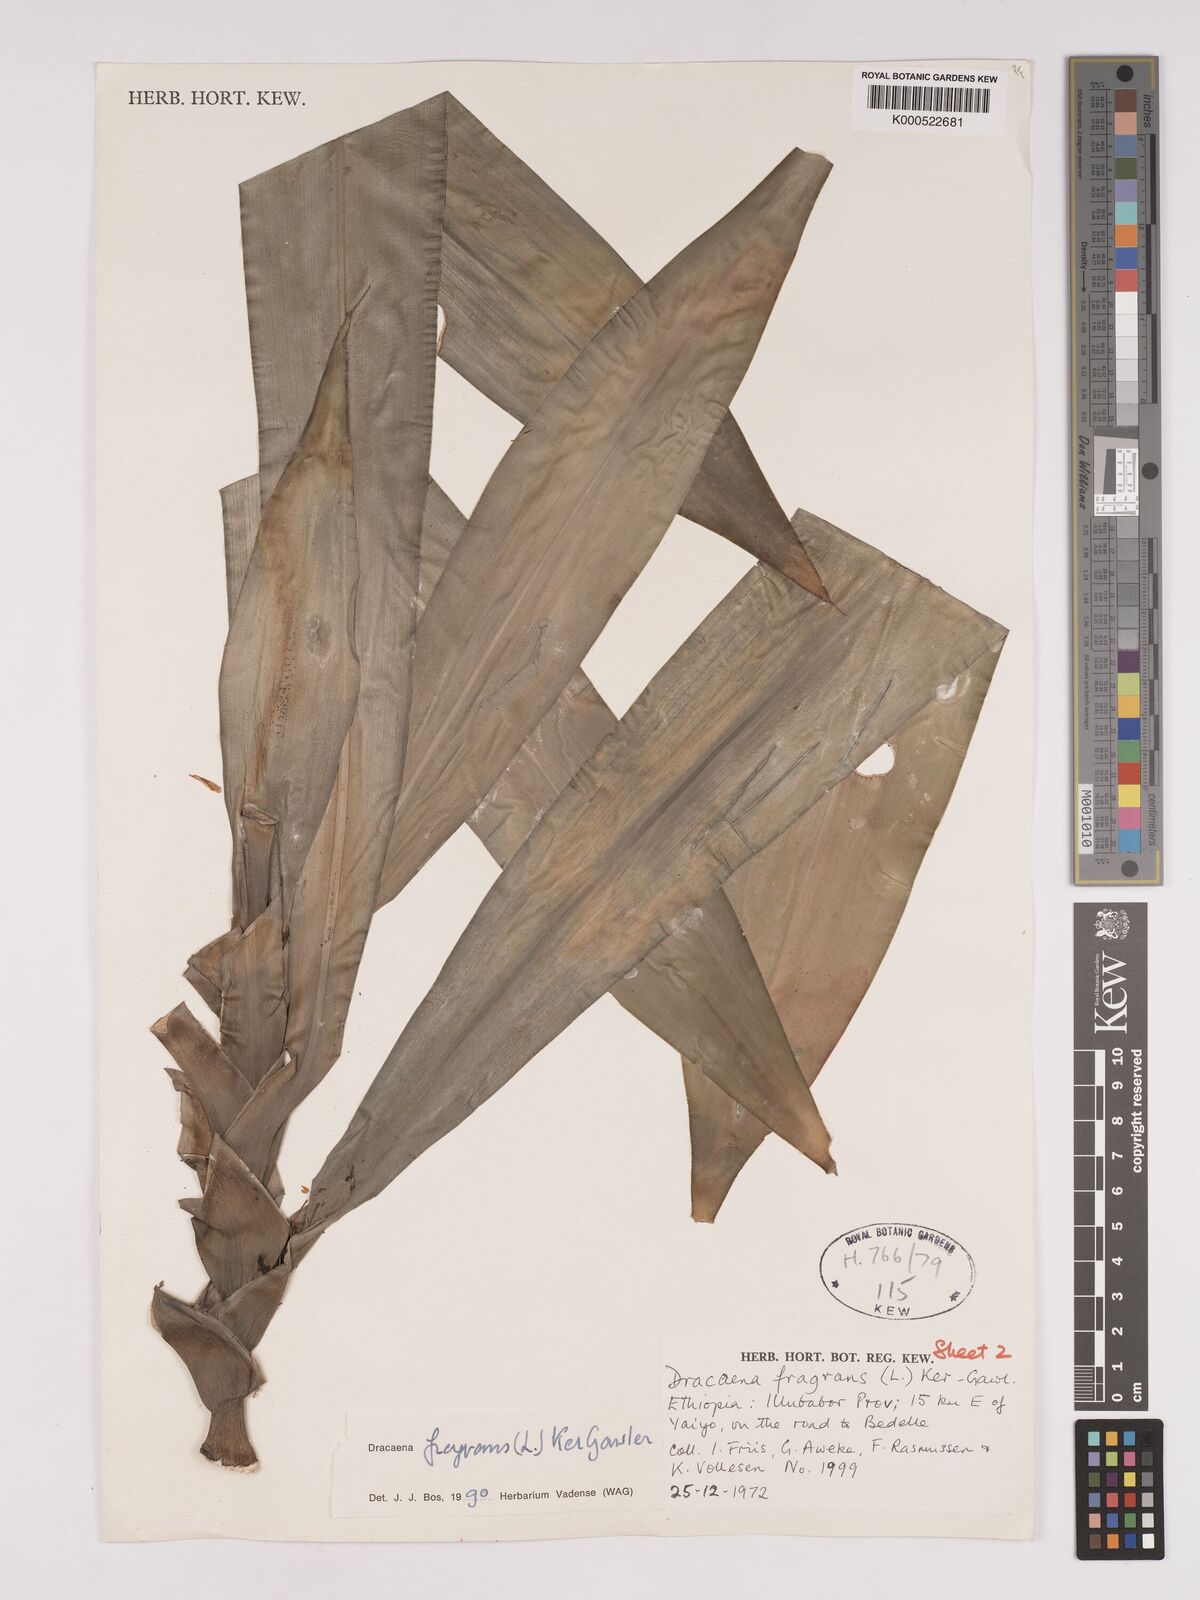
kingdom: Plantae
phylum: Tracheophyta
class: Liliopsida
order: Asparagales
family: Asparagaceae
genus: Dracaena
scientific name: Dracaena fragrans
